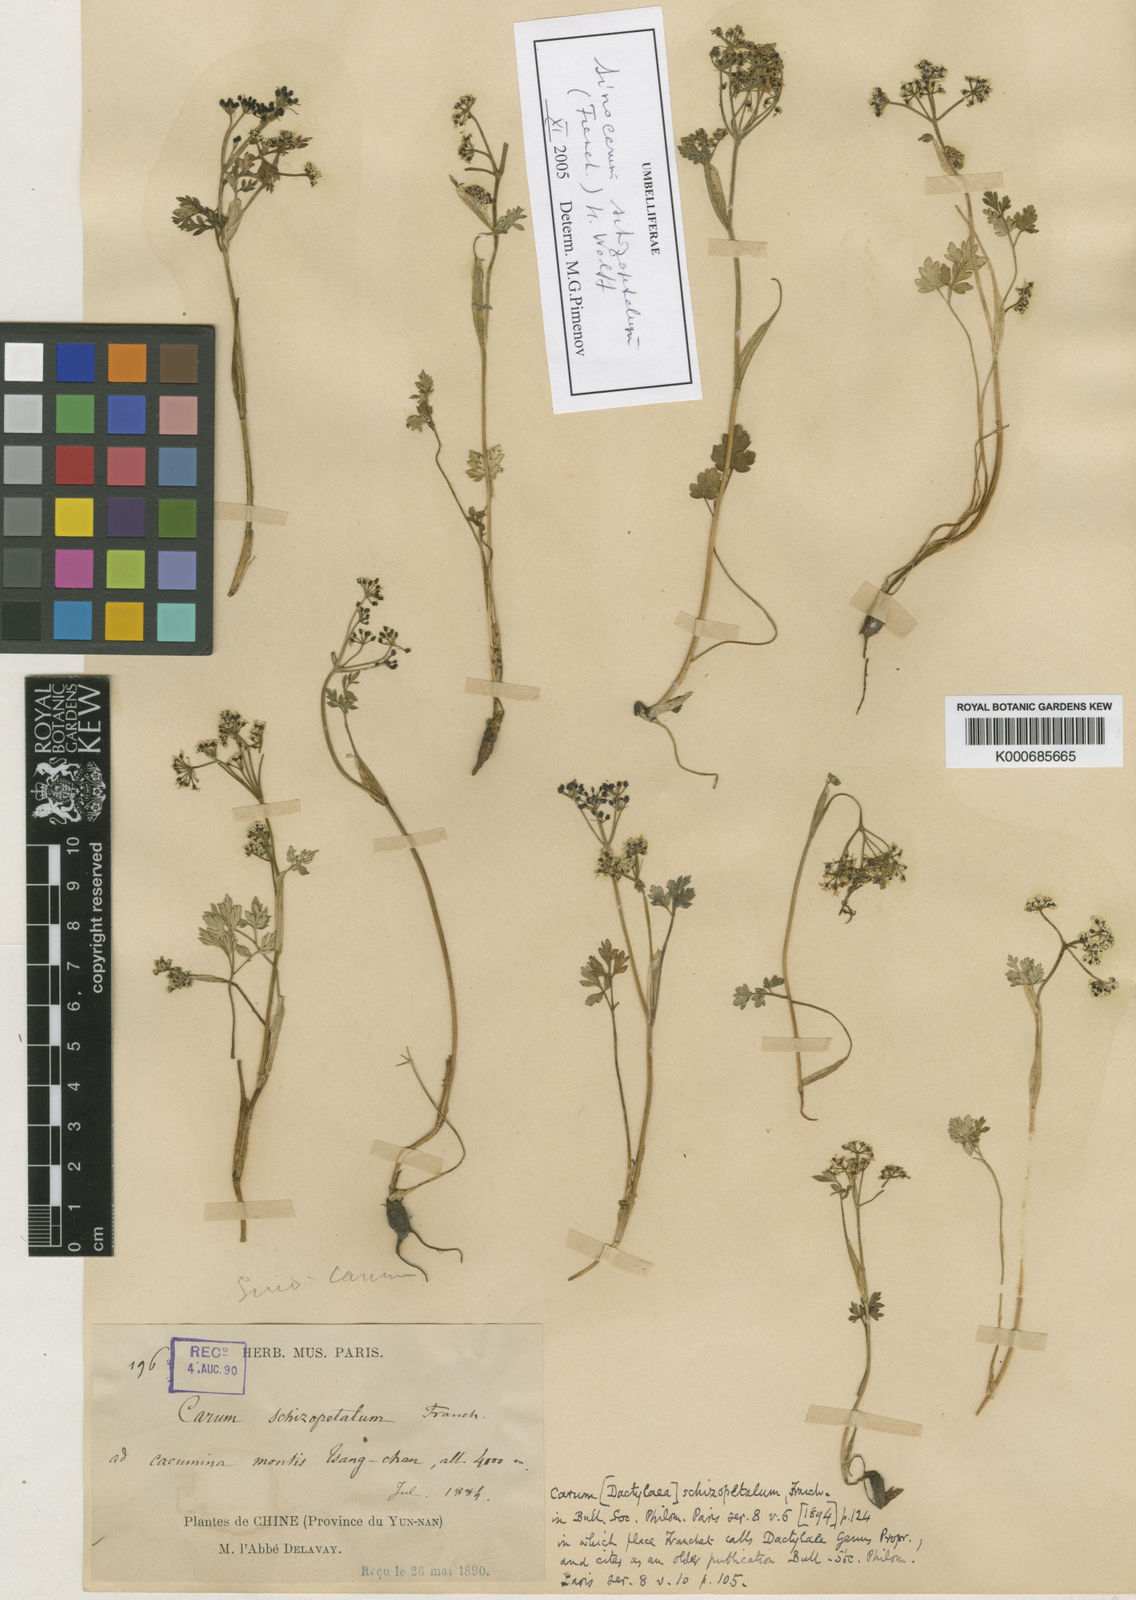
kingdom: Plantae
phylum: Tracheophyta
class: Magnoliopsida
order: Apiales
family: Apiaceae
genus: Sinocarum
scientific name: Sinocarum schizopetalum
